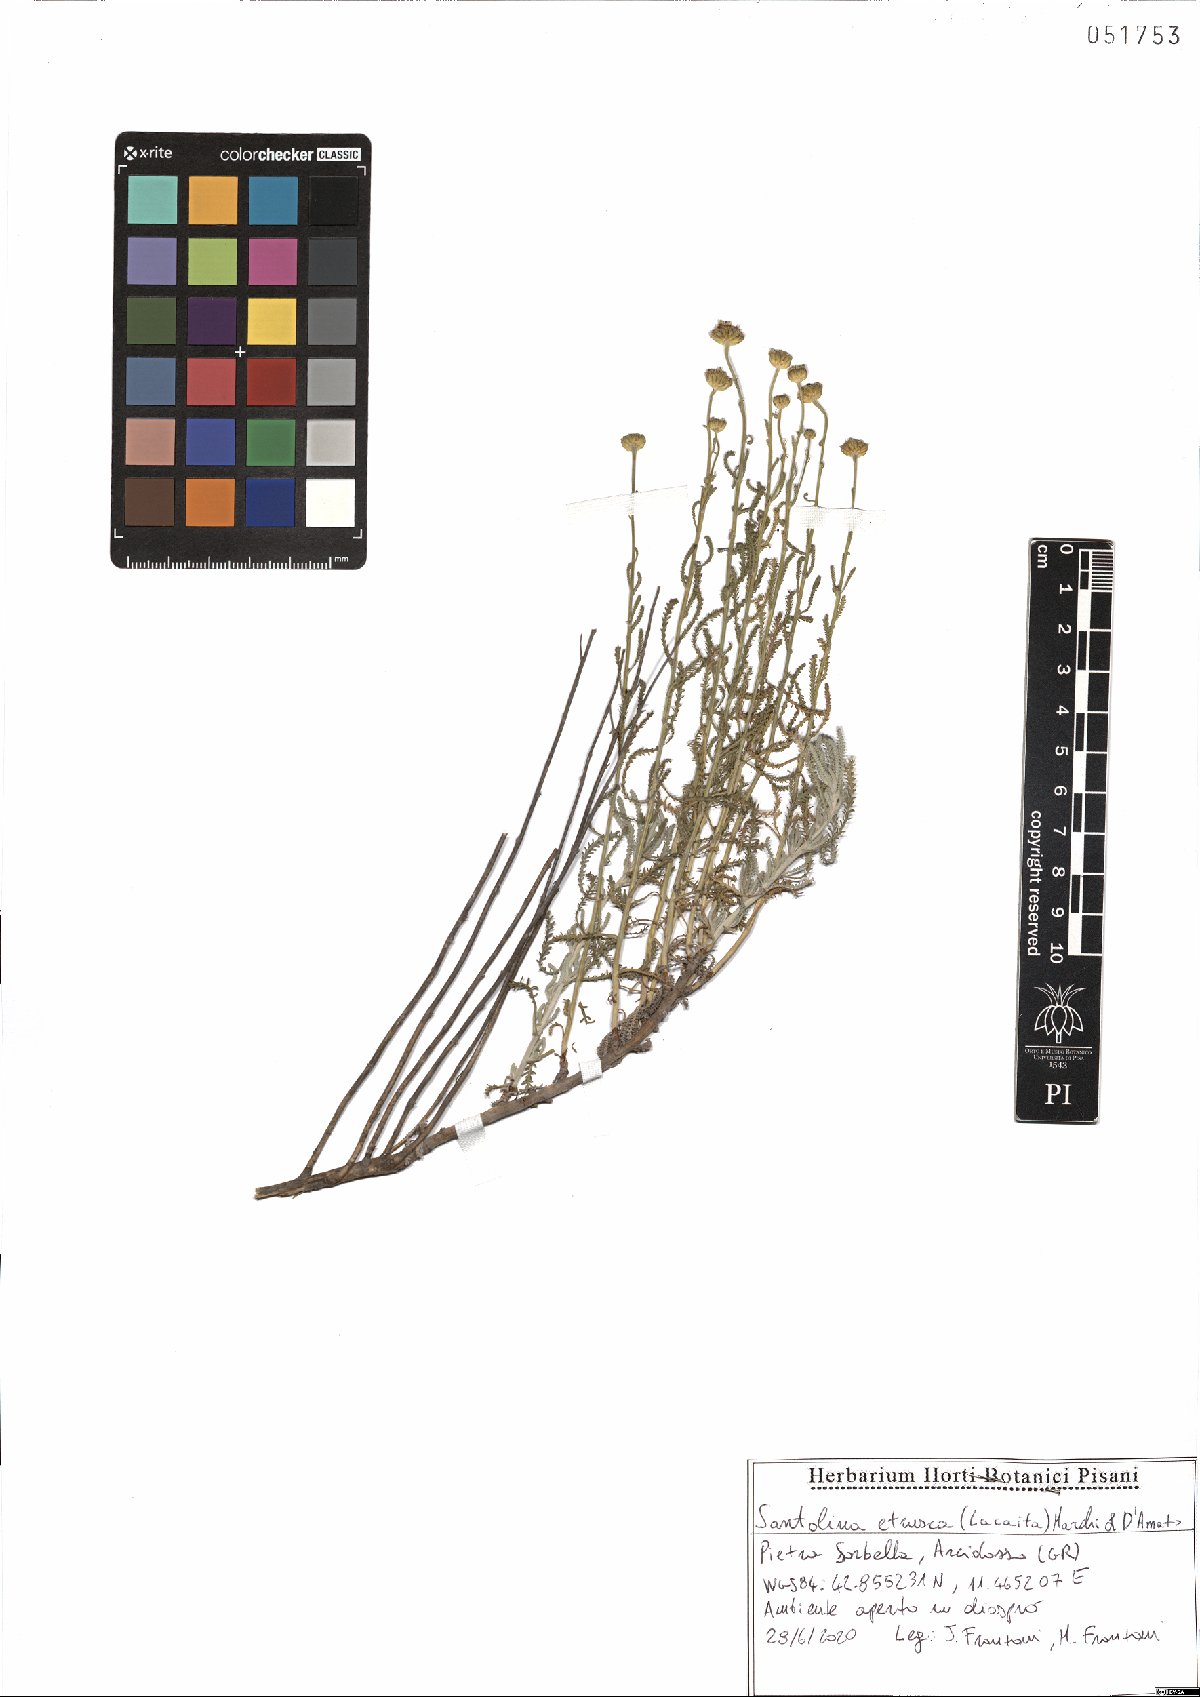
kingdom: Plantae
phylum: Tracheophyta
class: Magnoliopsida
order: Asterales
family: Asteraceae
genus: Santolina
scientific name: Santolina etrusca
